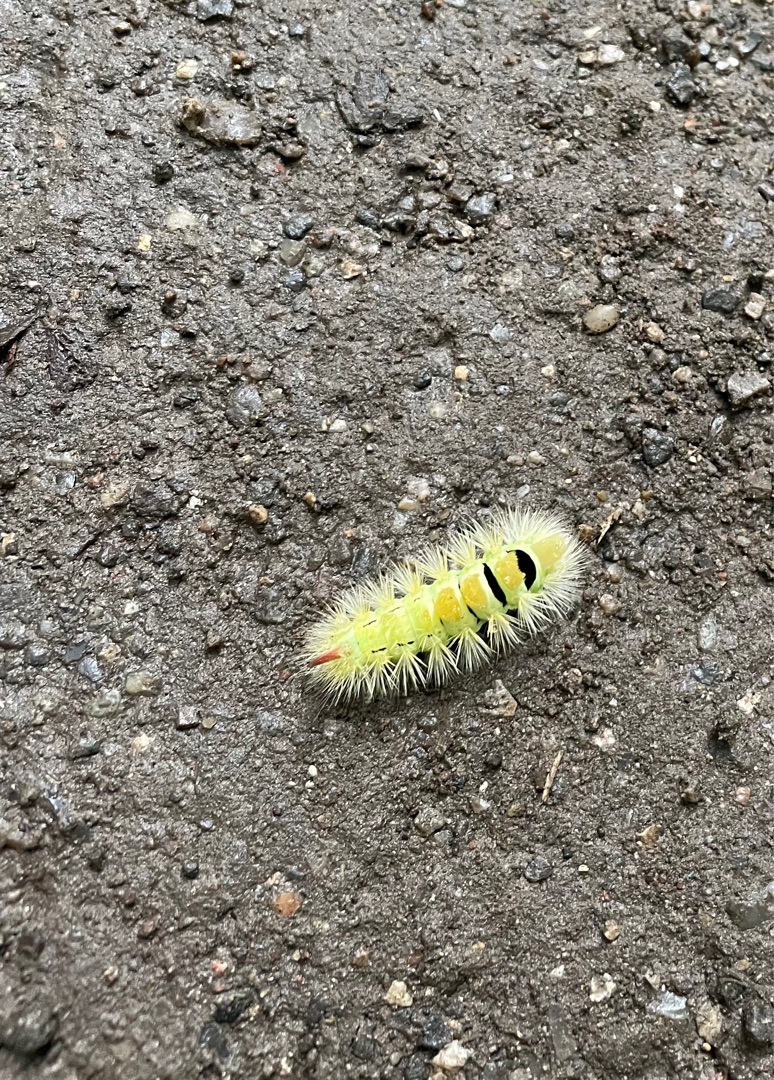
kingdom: Animalia
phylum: Arthropoda
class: Insecta
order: Lepidoptera
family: Erebidae
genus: Calliteara
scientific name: Calliteara pudibunda
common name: Bøgenonne
